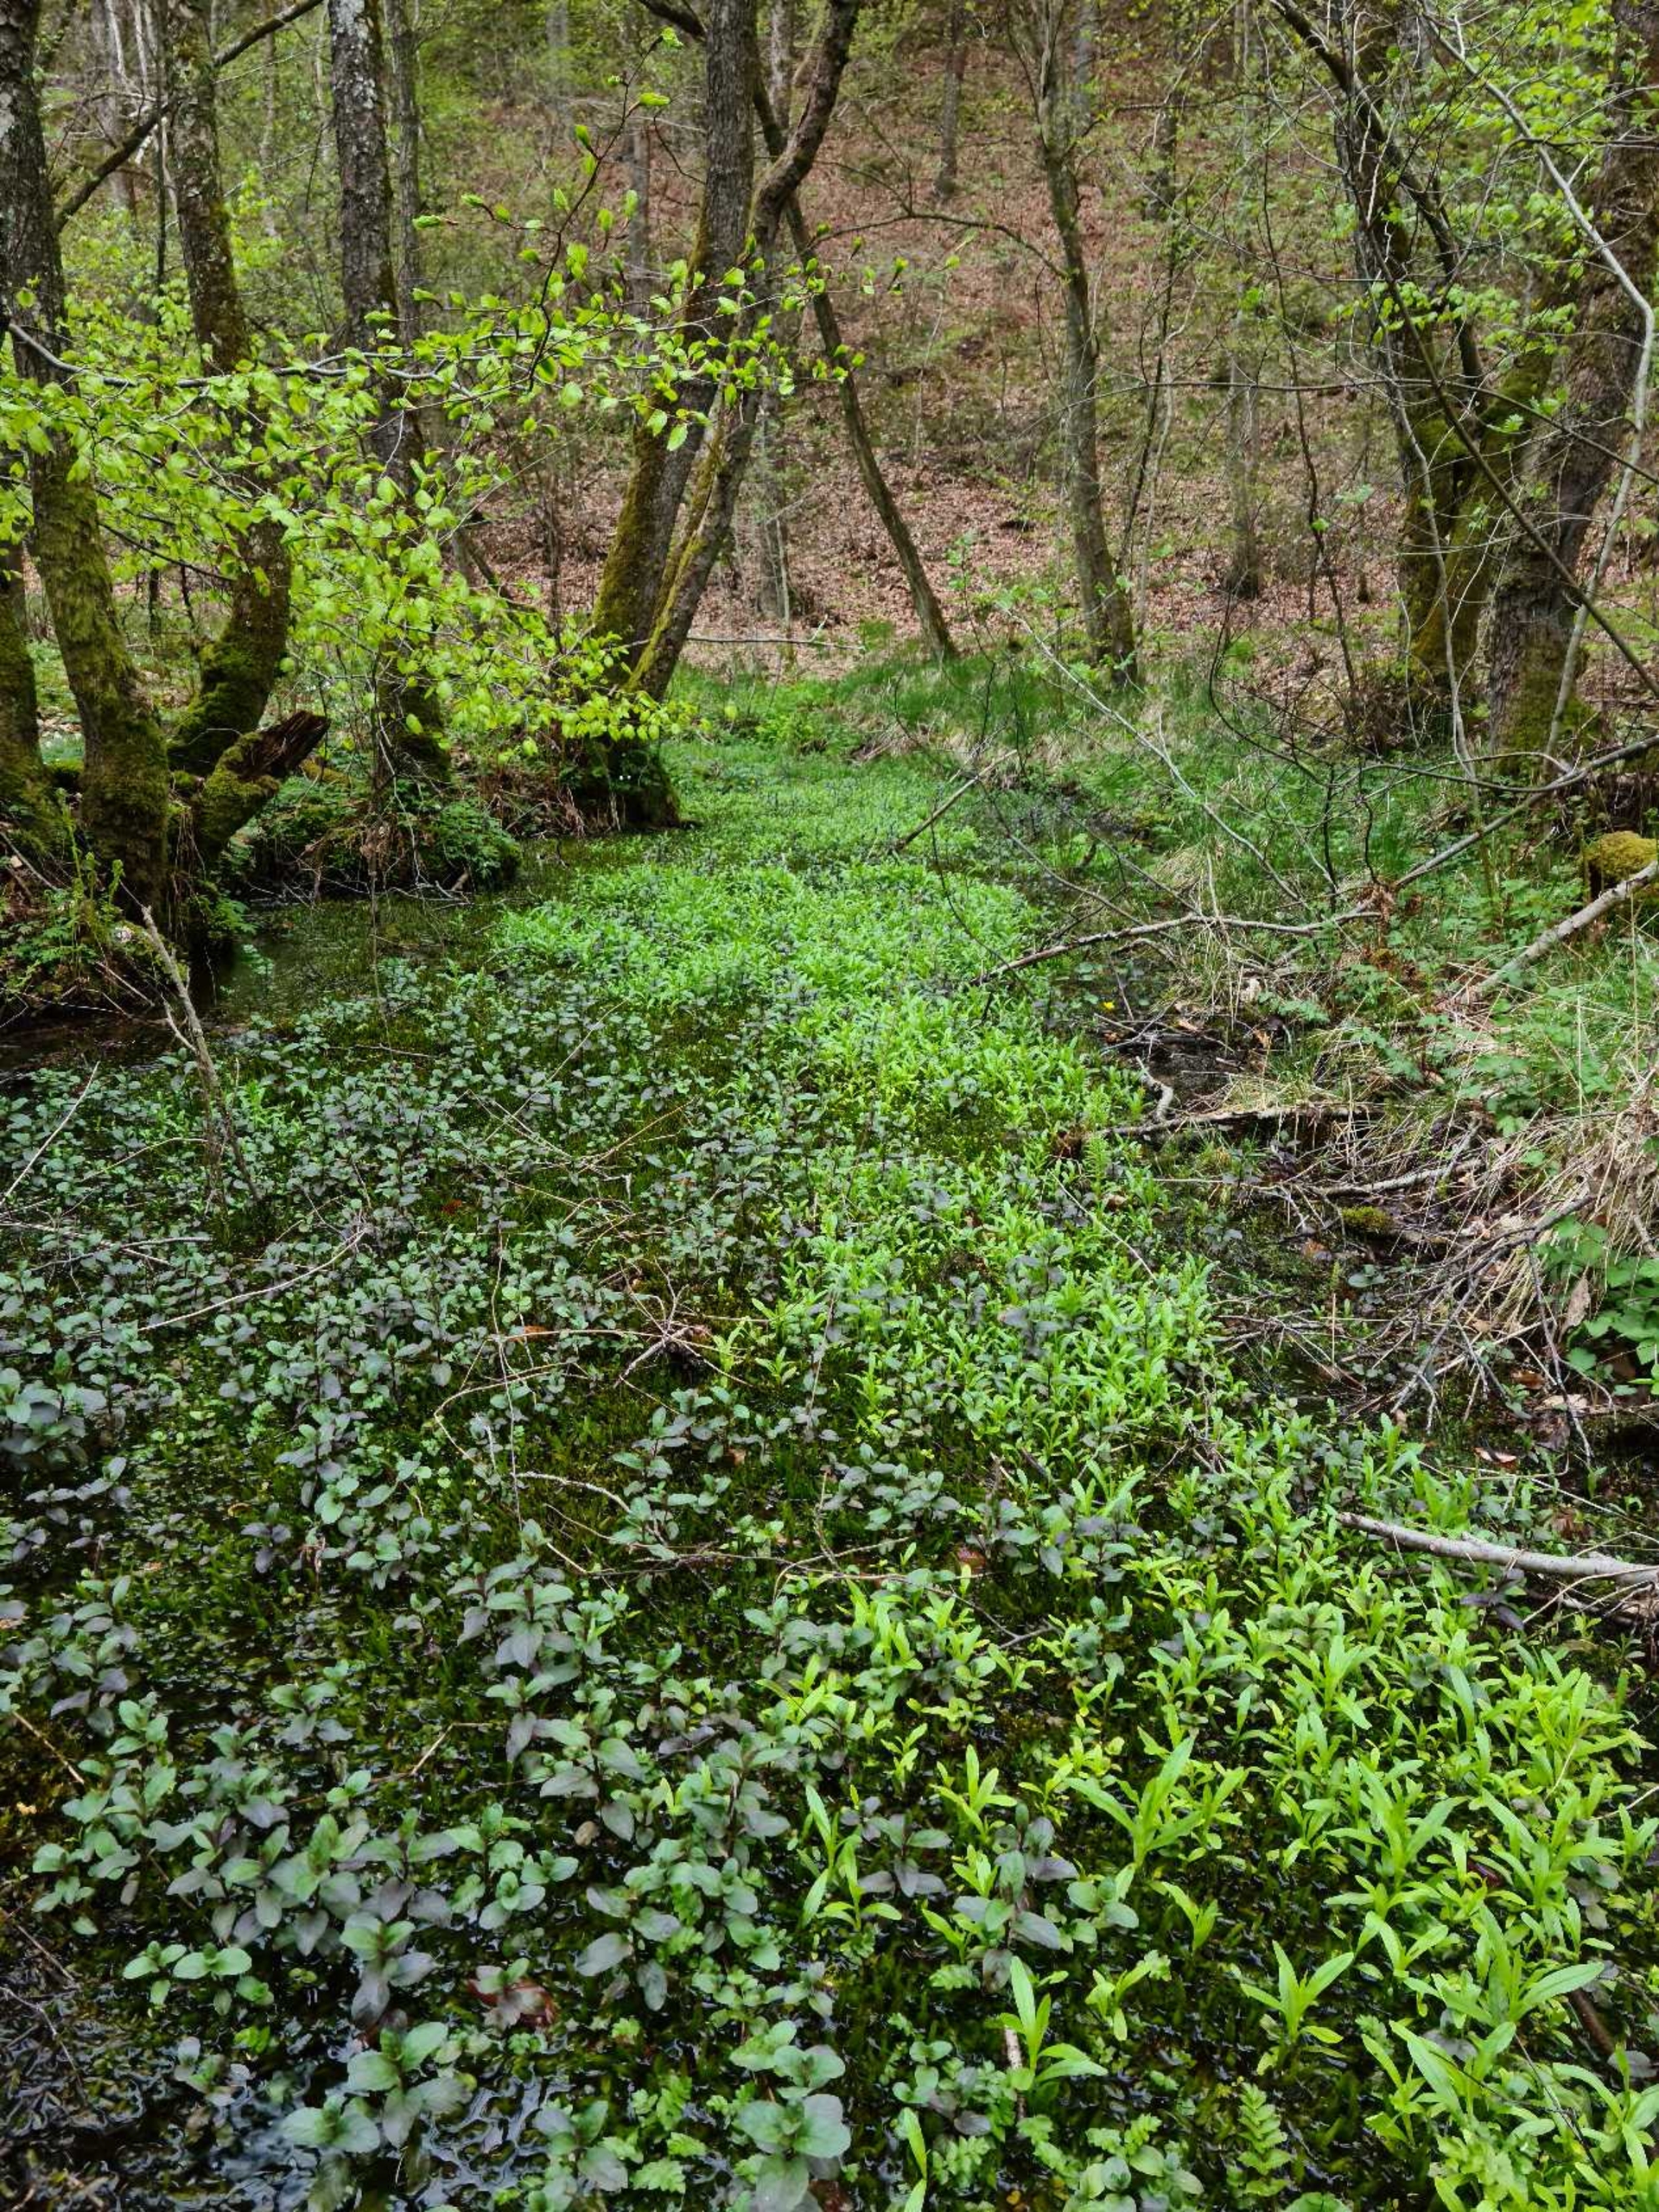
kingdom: Plantae
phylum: Bryophyta
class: Bryopsida
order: Hypnales
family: Fontinalaceae
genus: Fontinalis
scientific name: Fontinalis antipyretica
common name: Stor kildemos
